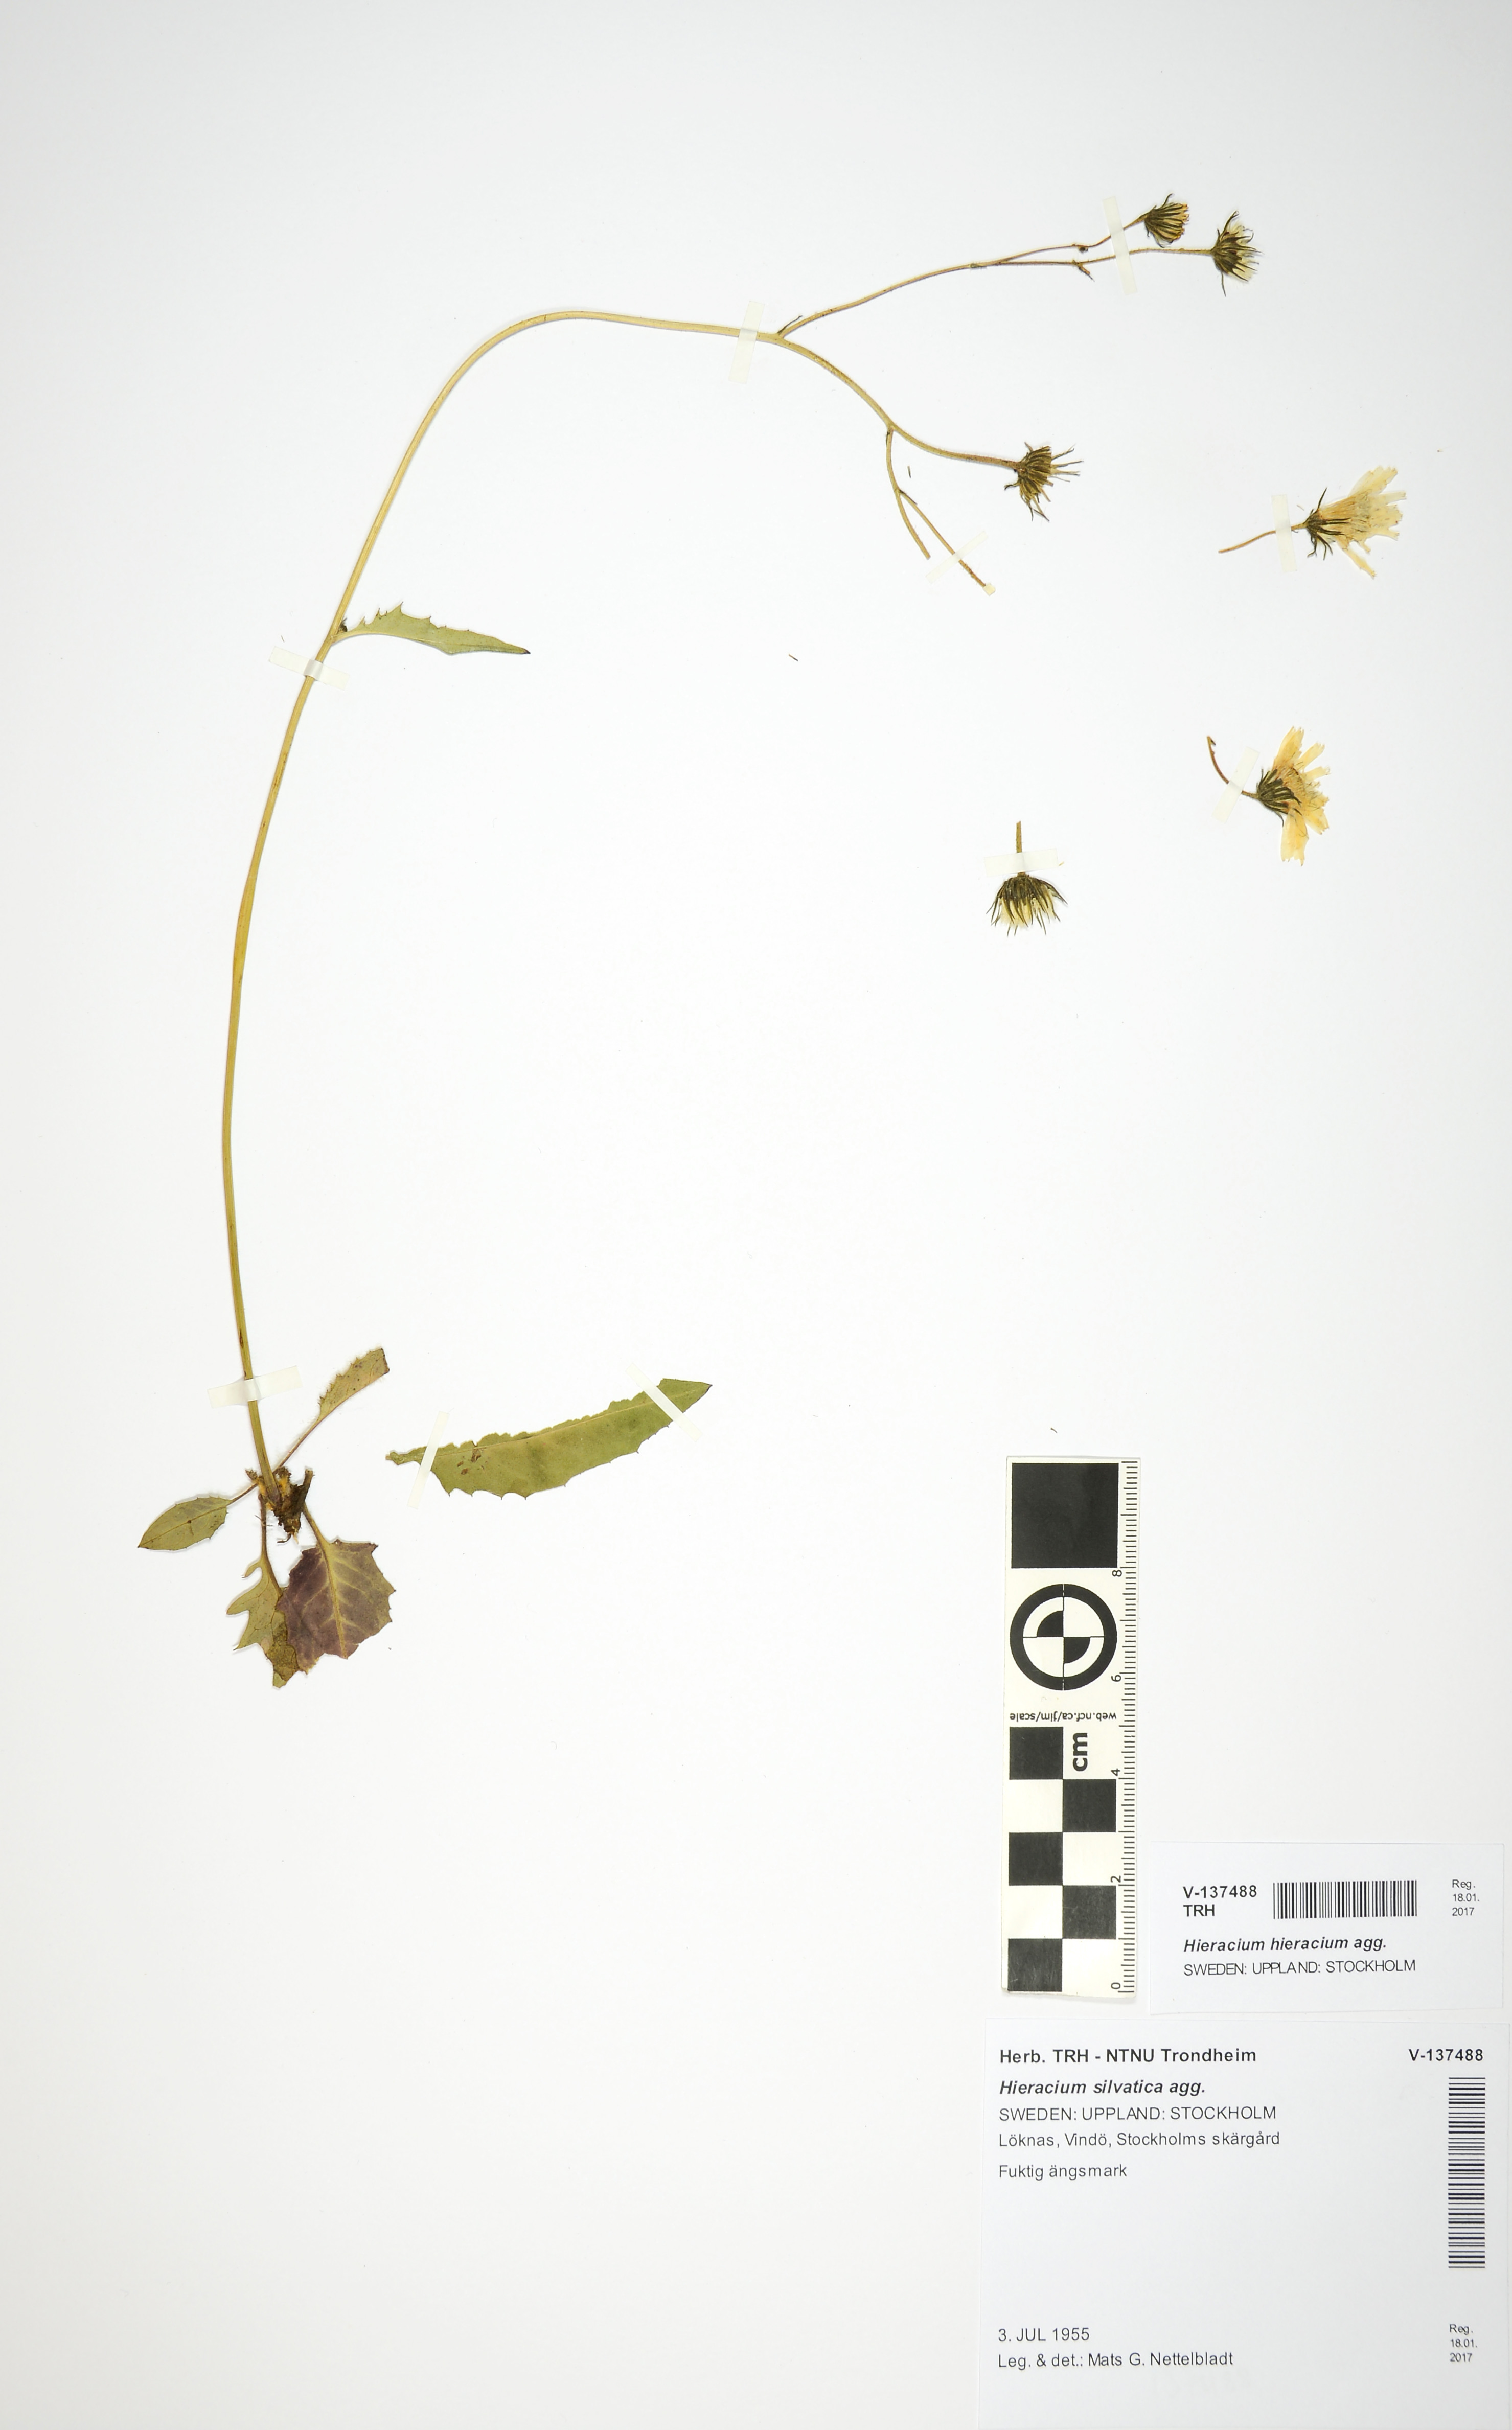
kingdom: Plantae
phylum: Tracheophyta
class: Magnoliopsida
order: Asterales
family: Asteraceae
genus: Hieracium
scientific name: Hieracium
